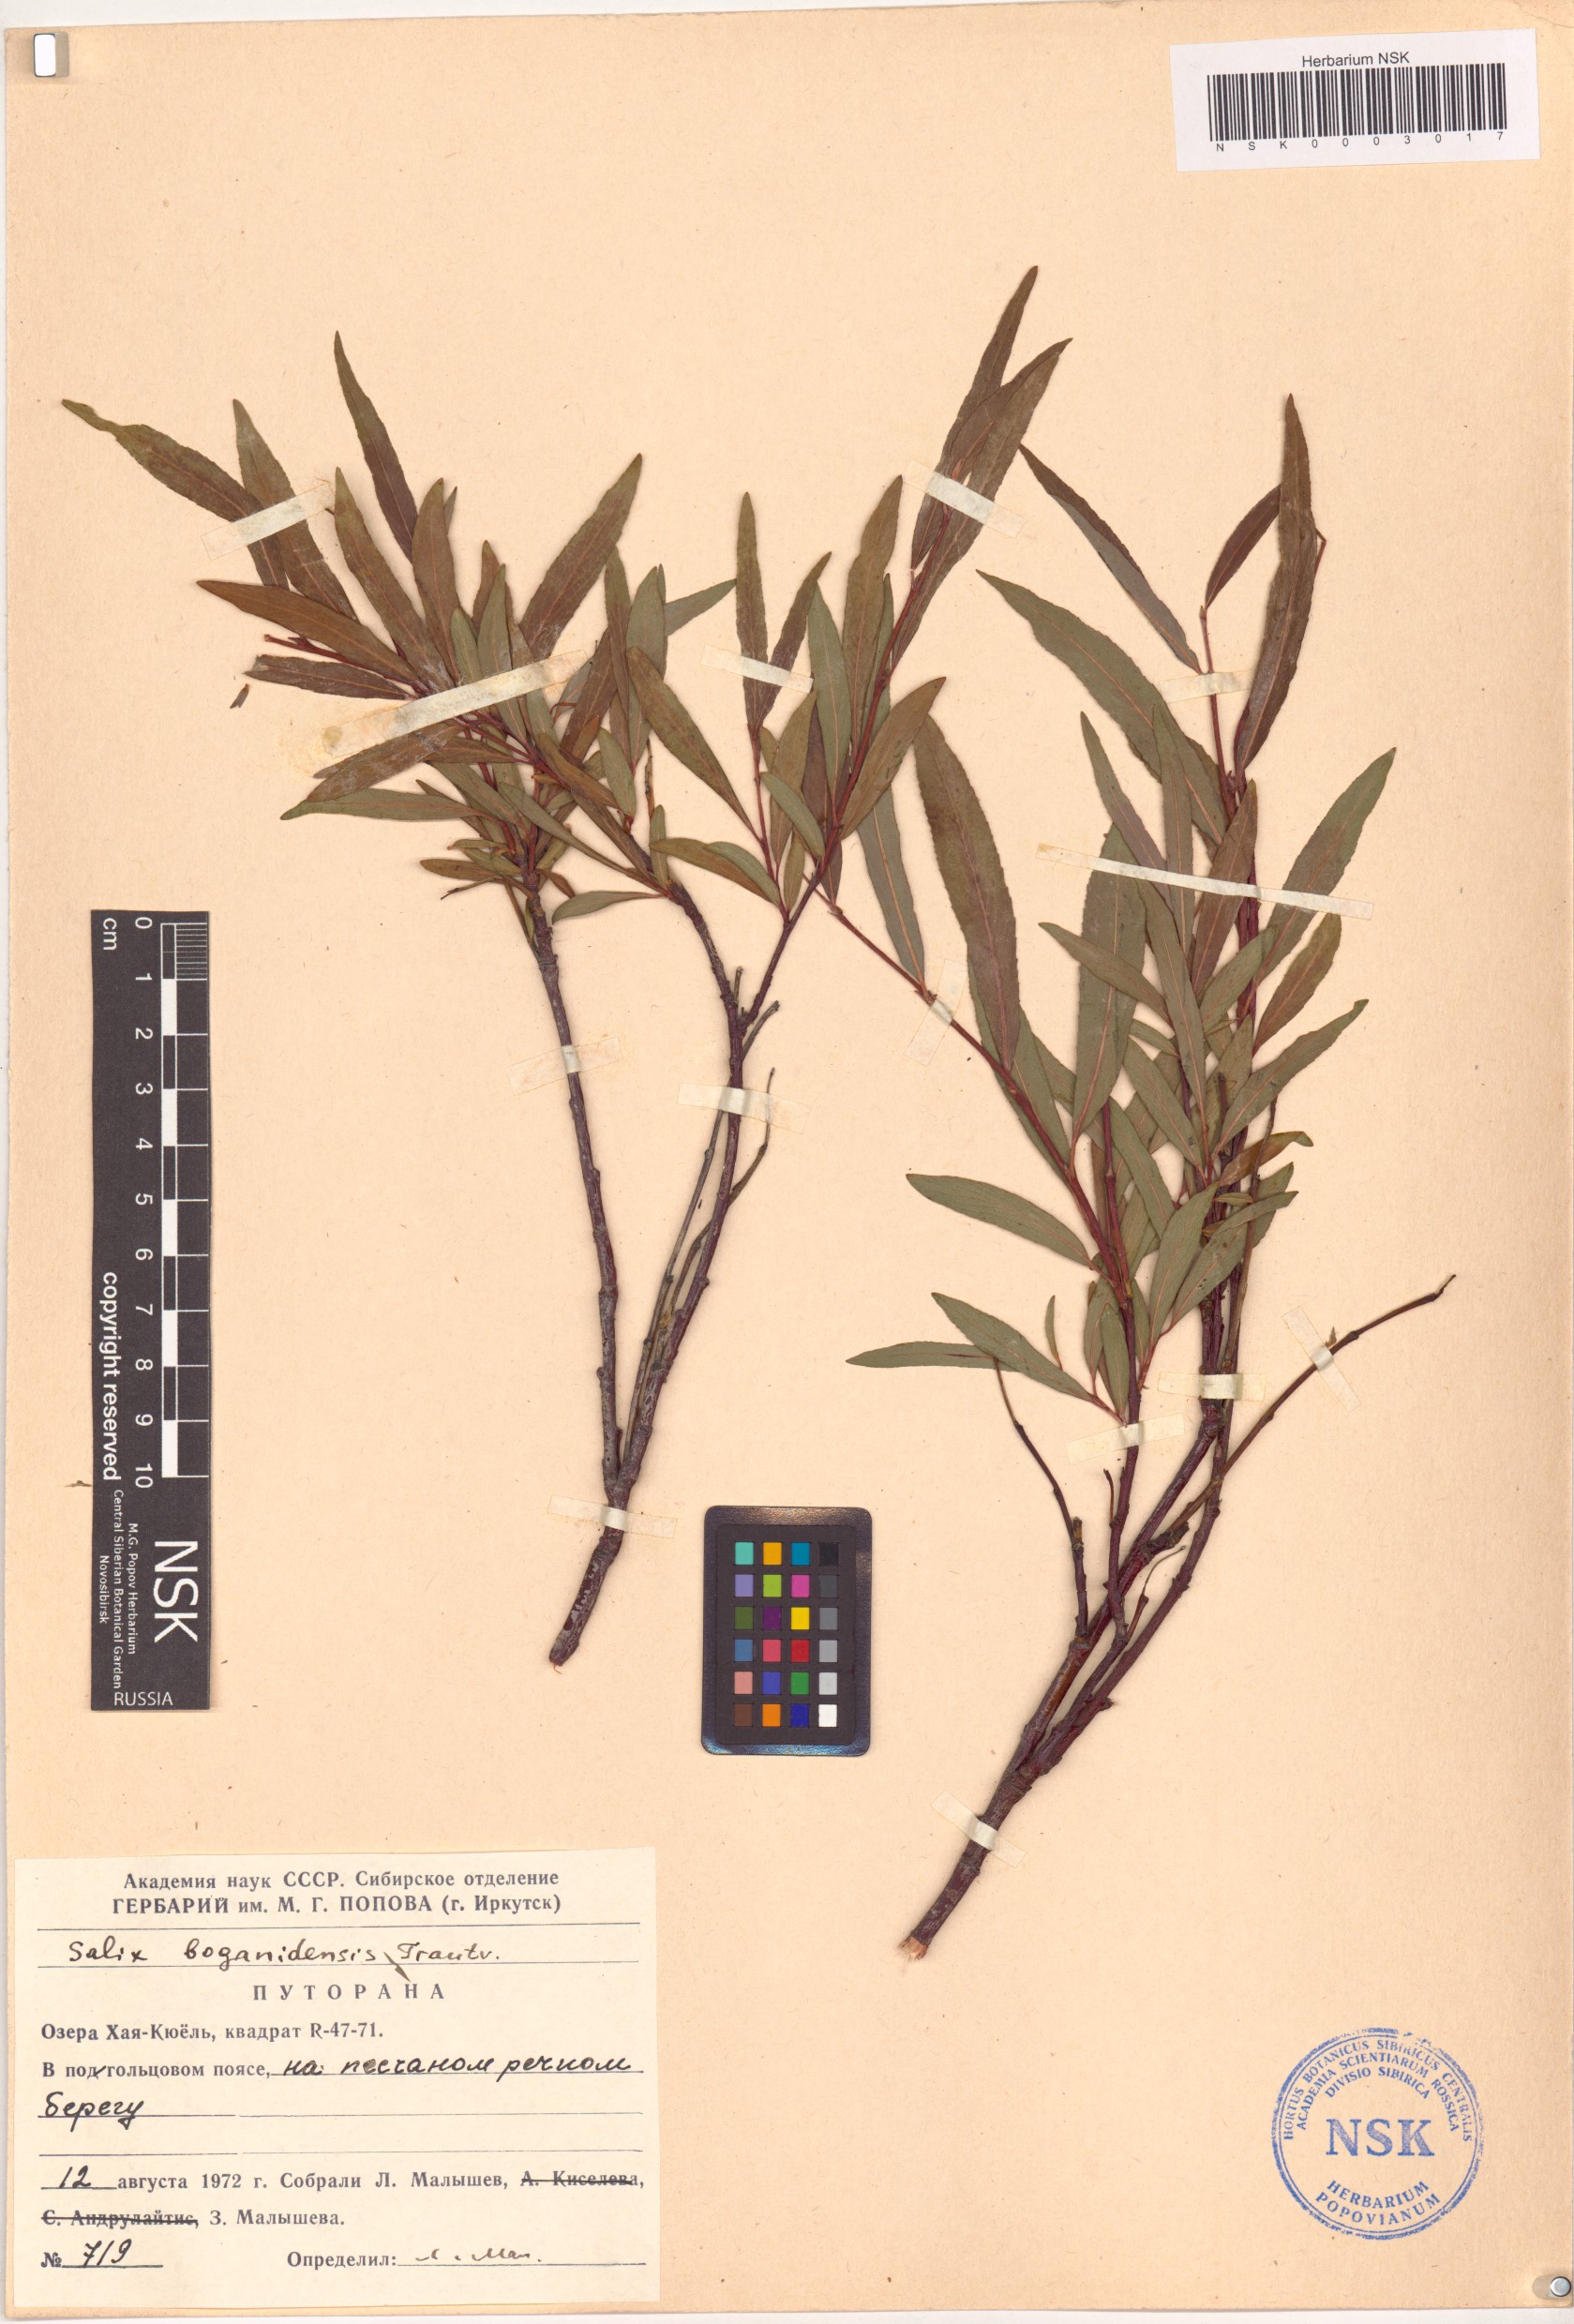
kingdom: Plantae
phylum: Tracheophyta
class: Magnoliopsida
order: Malpighiales
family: Salicaceae
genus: Salix
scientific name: Salix boganidensis
